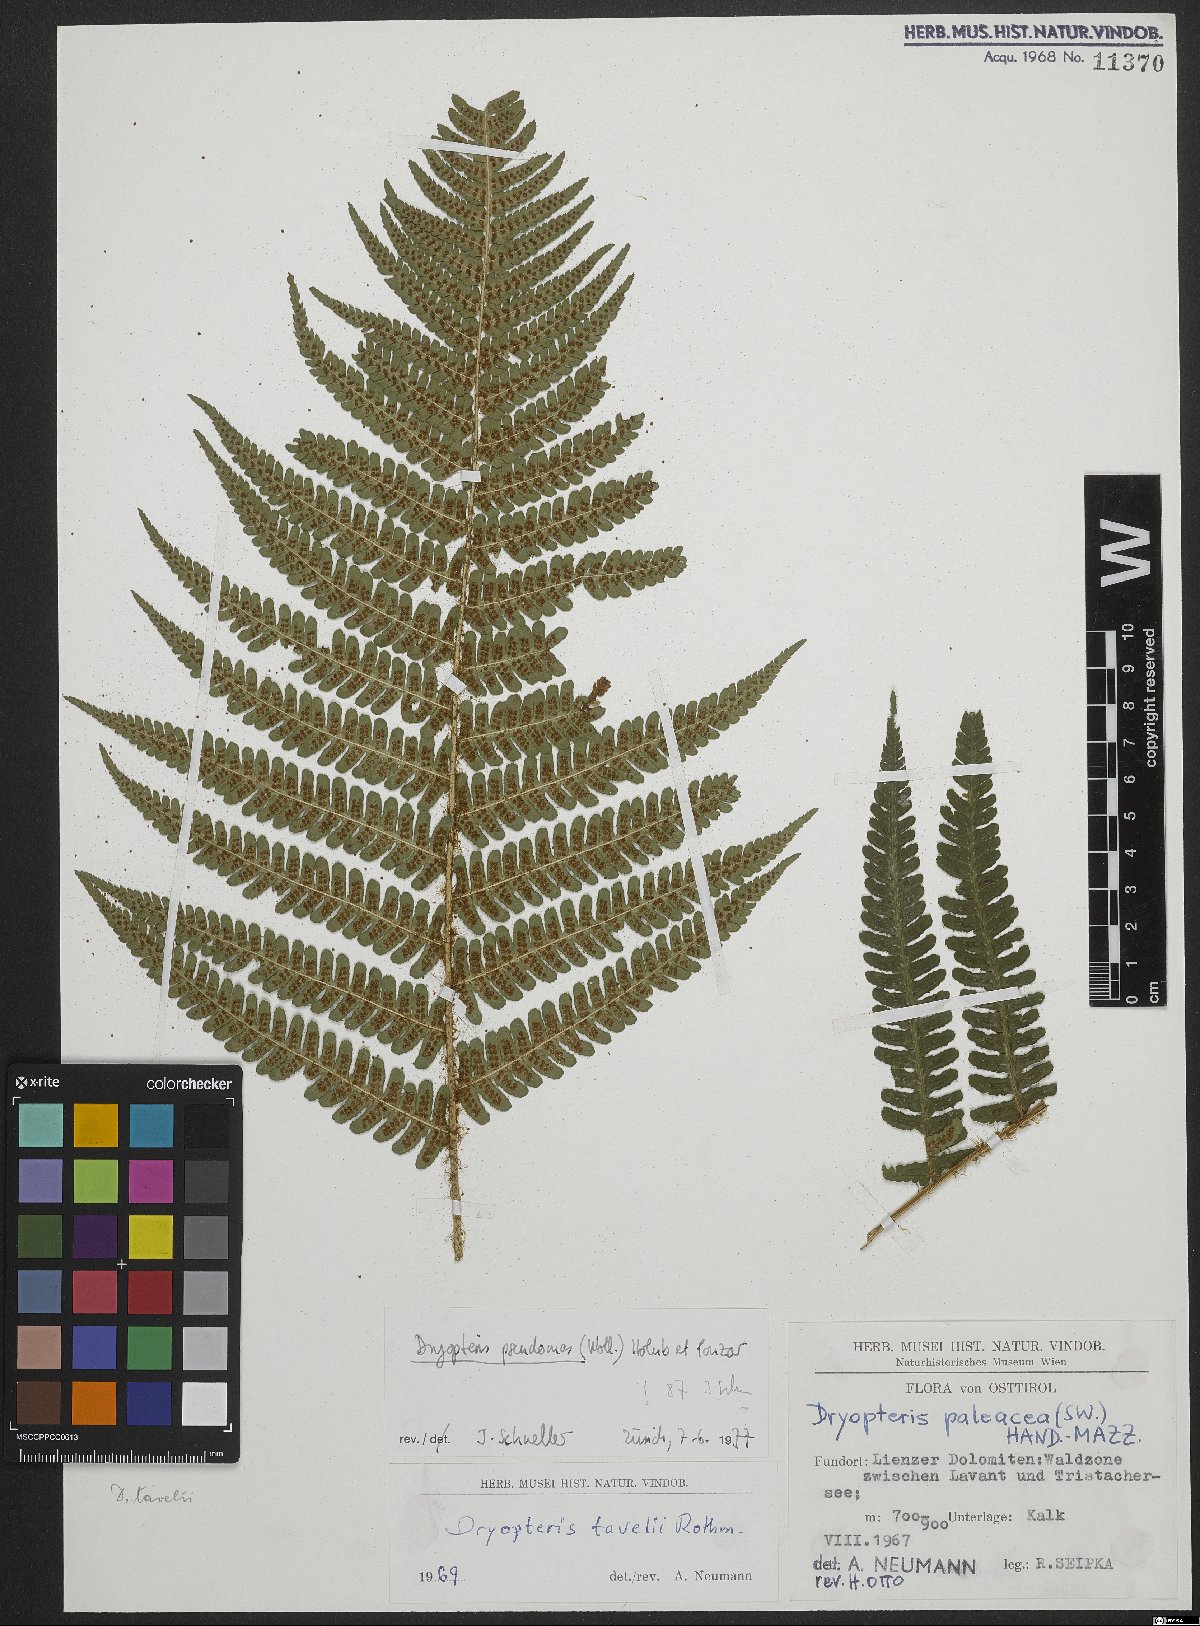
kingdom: Plantae
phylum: Tracheophyta
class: Polypodiopsida
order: Polypodiales
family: Dryopteridaceae
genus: Dryopteris
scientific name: Dryopteris borreri
